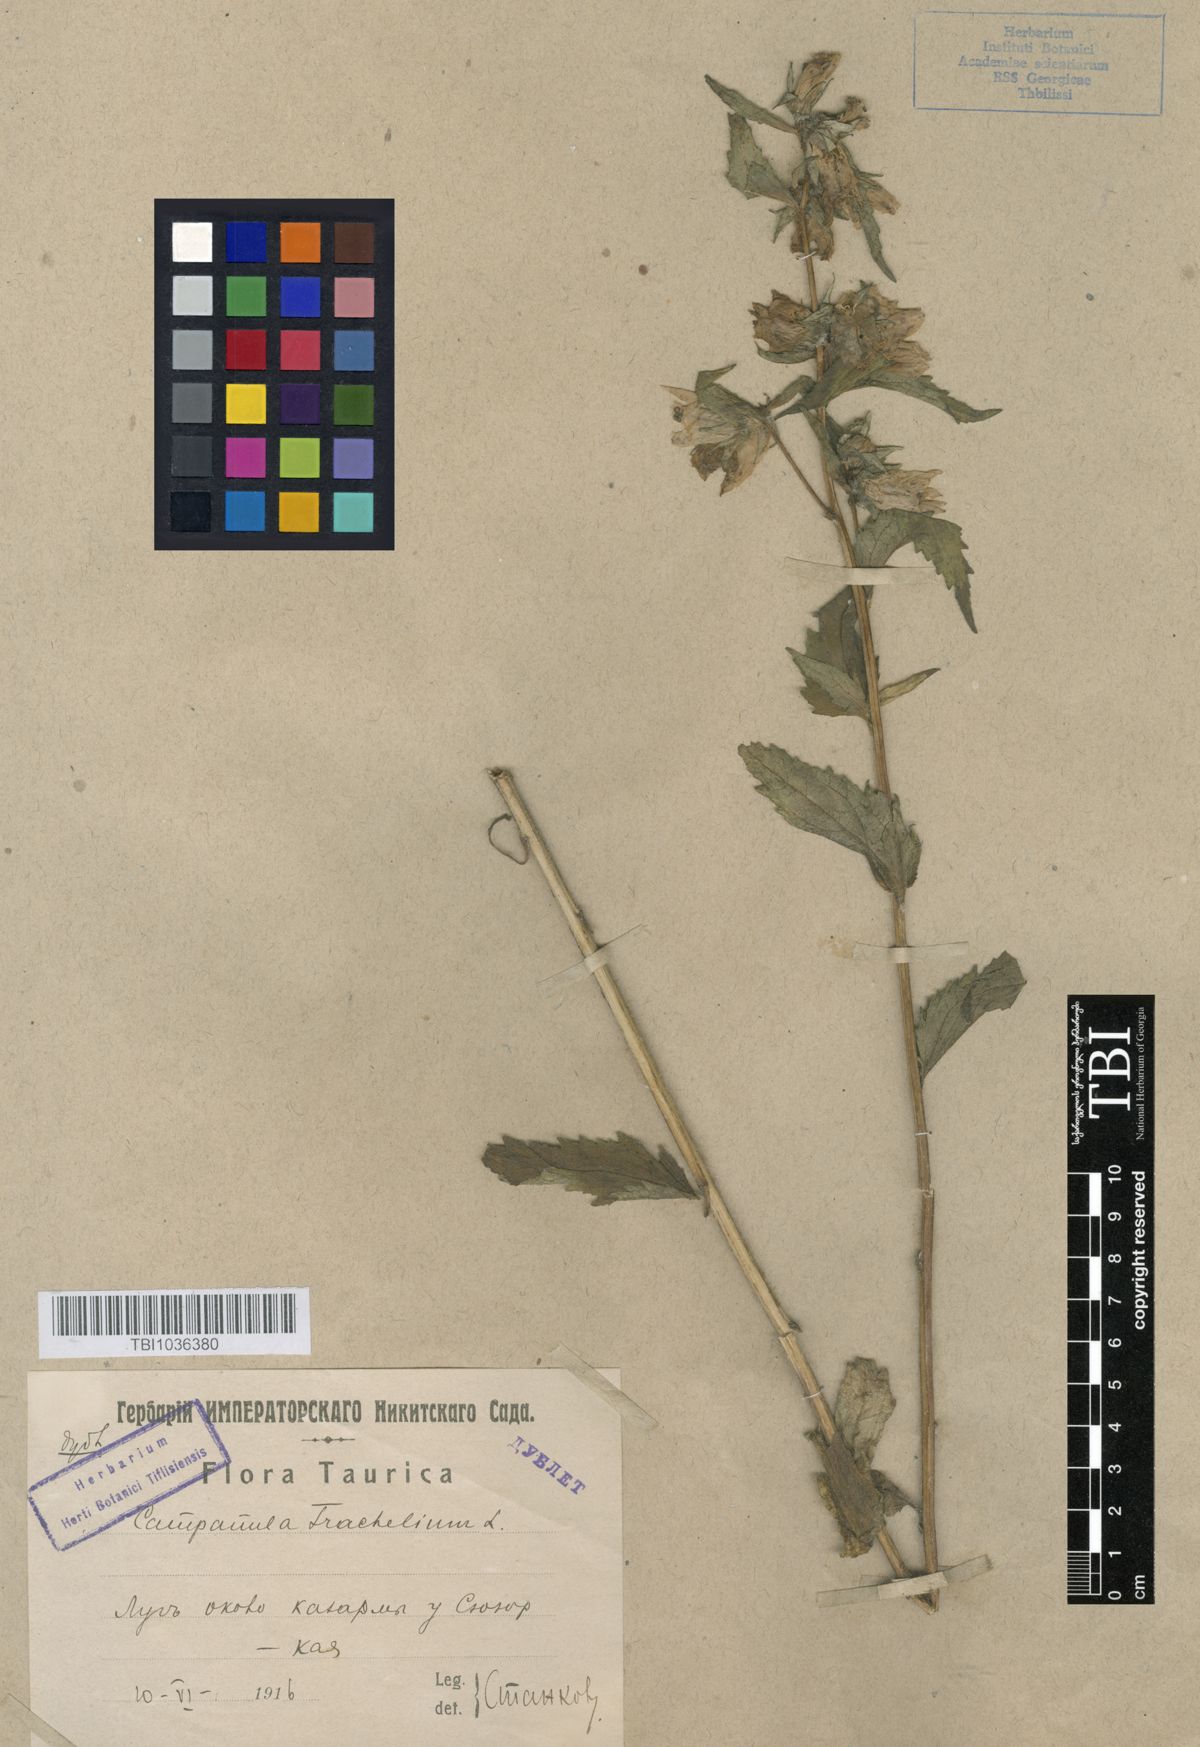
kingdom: Plantae
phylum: Tracheophyta
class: Magnoliopsida
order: Asterales
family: Campanulaceae
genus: Campanula
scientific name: Campanula trachelium
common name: Nettle-leaved bellflower
